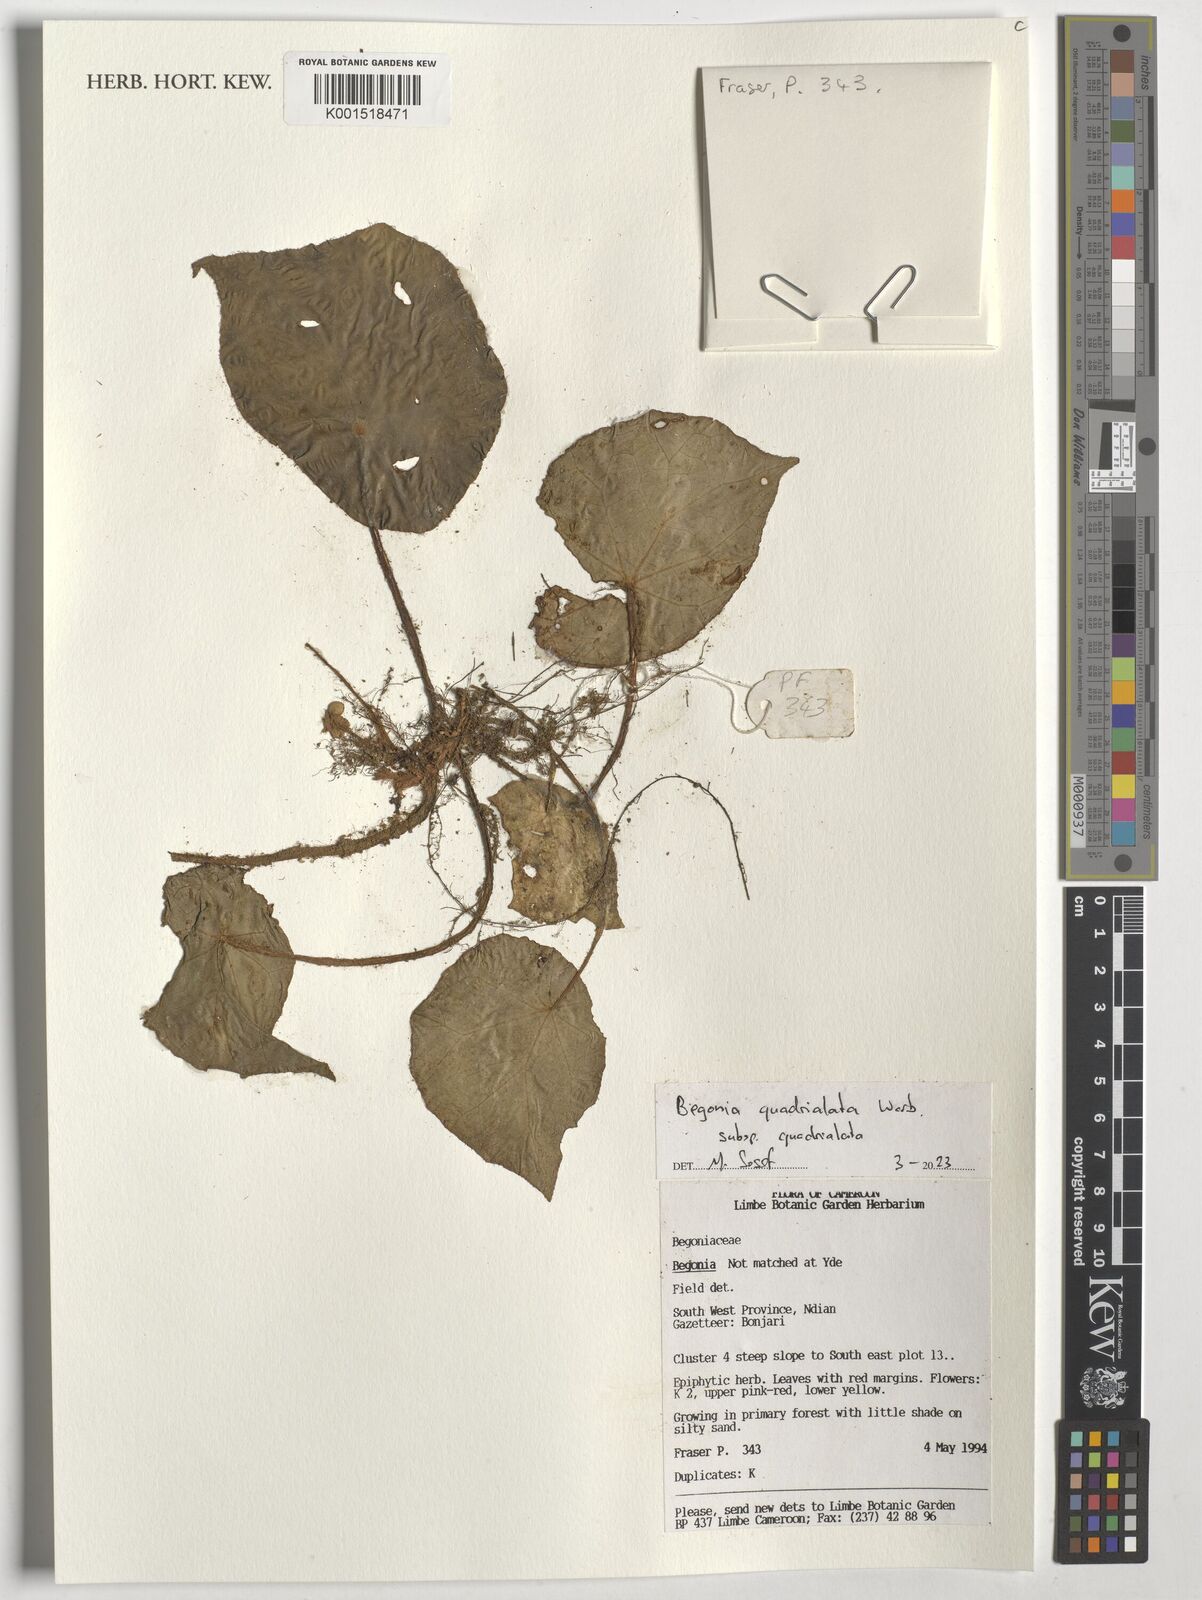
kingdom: Plantae
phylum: Tracheophyta
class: Magnoliopsida
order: Cucurbitales
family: Begoniaceae
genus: Begonia
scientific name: Begonia quadrialata
